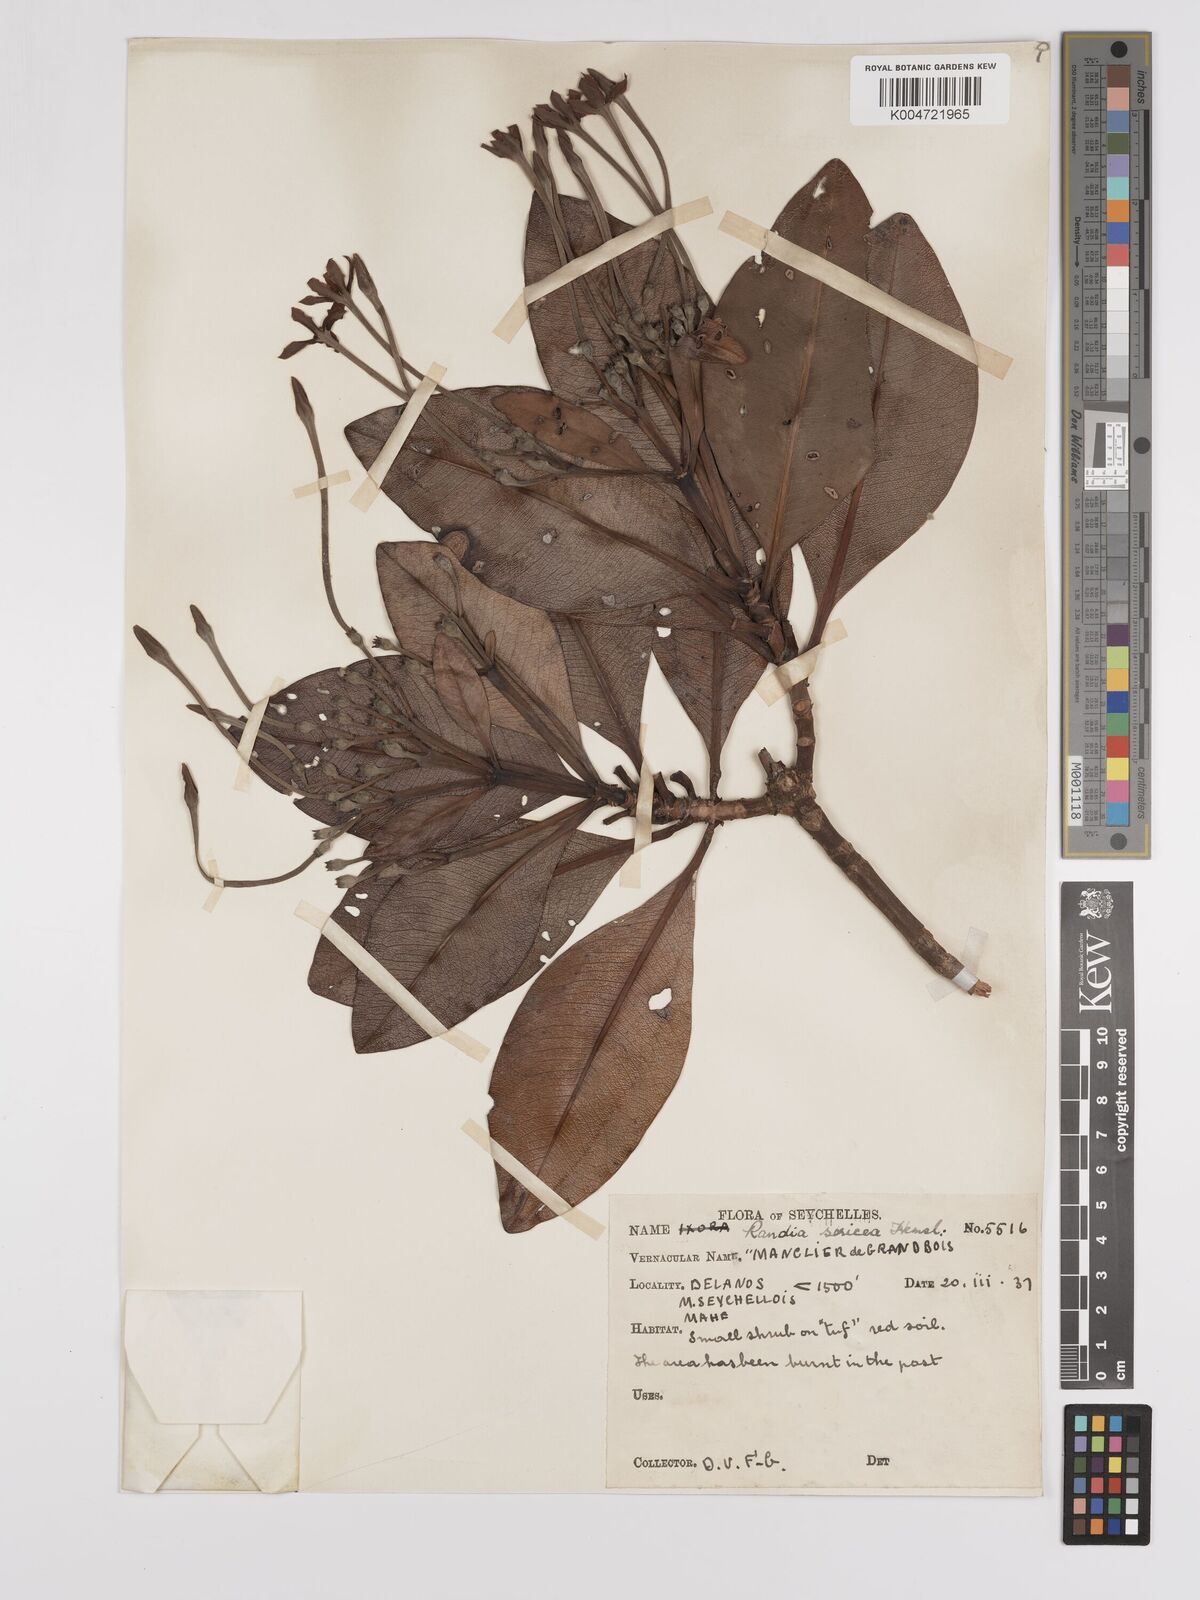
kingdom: Plantae
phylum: Tracheophyta
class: Magnoliopsida
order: Gentianales
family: Rubiaceae
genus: Glionnetia
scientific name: Glionnetia sericea
